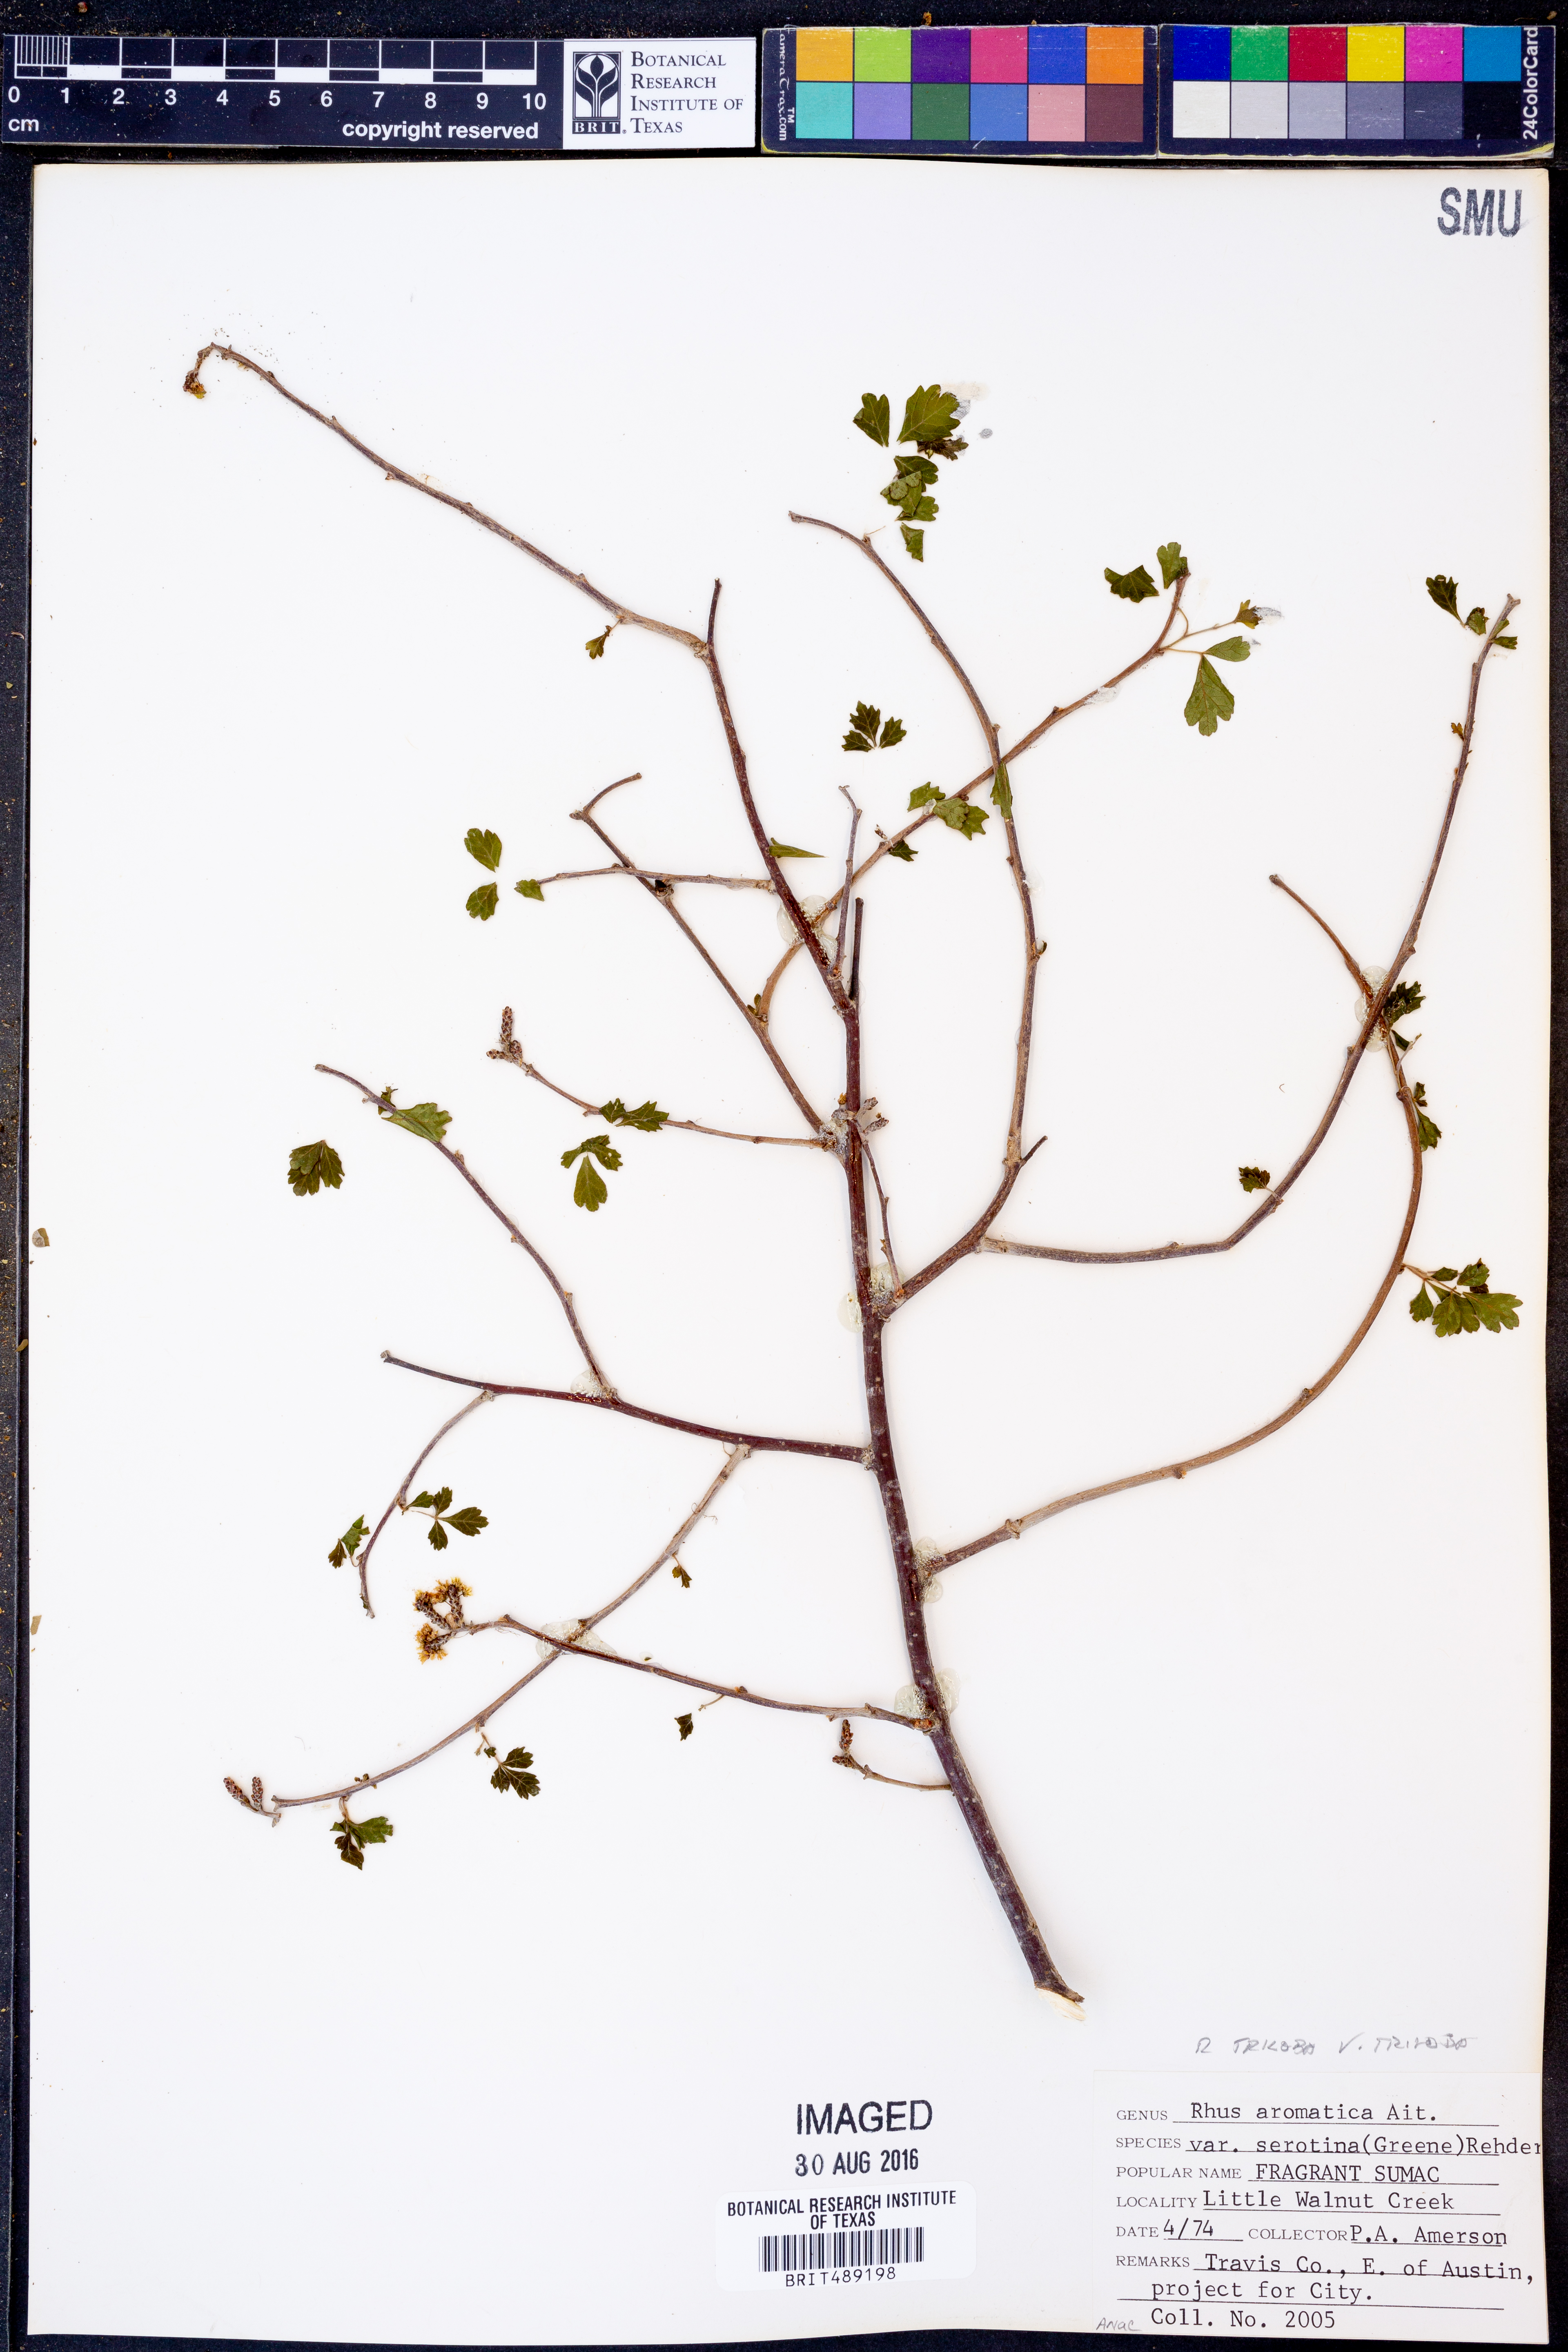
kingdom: Plantae
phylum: Tracheophyta
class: Magnoliopsida
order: Sapindales
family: Anacardiaceae
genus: Rhus
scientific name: Rhus trilobata
